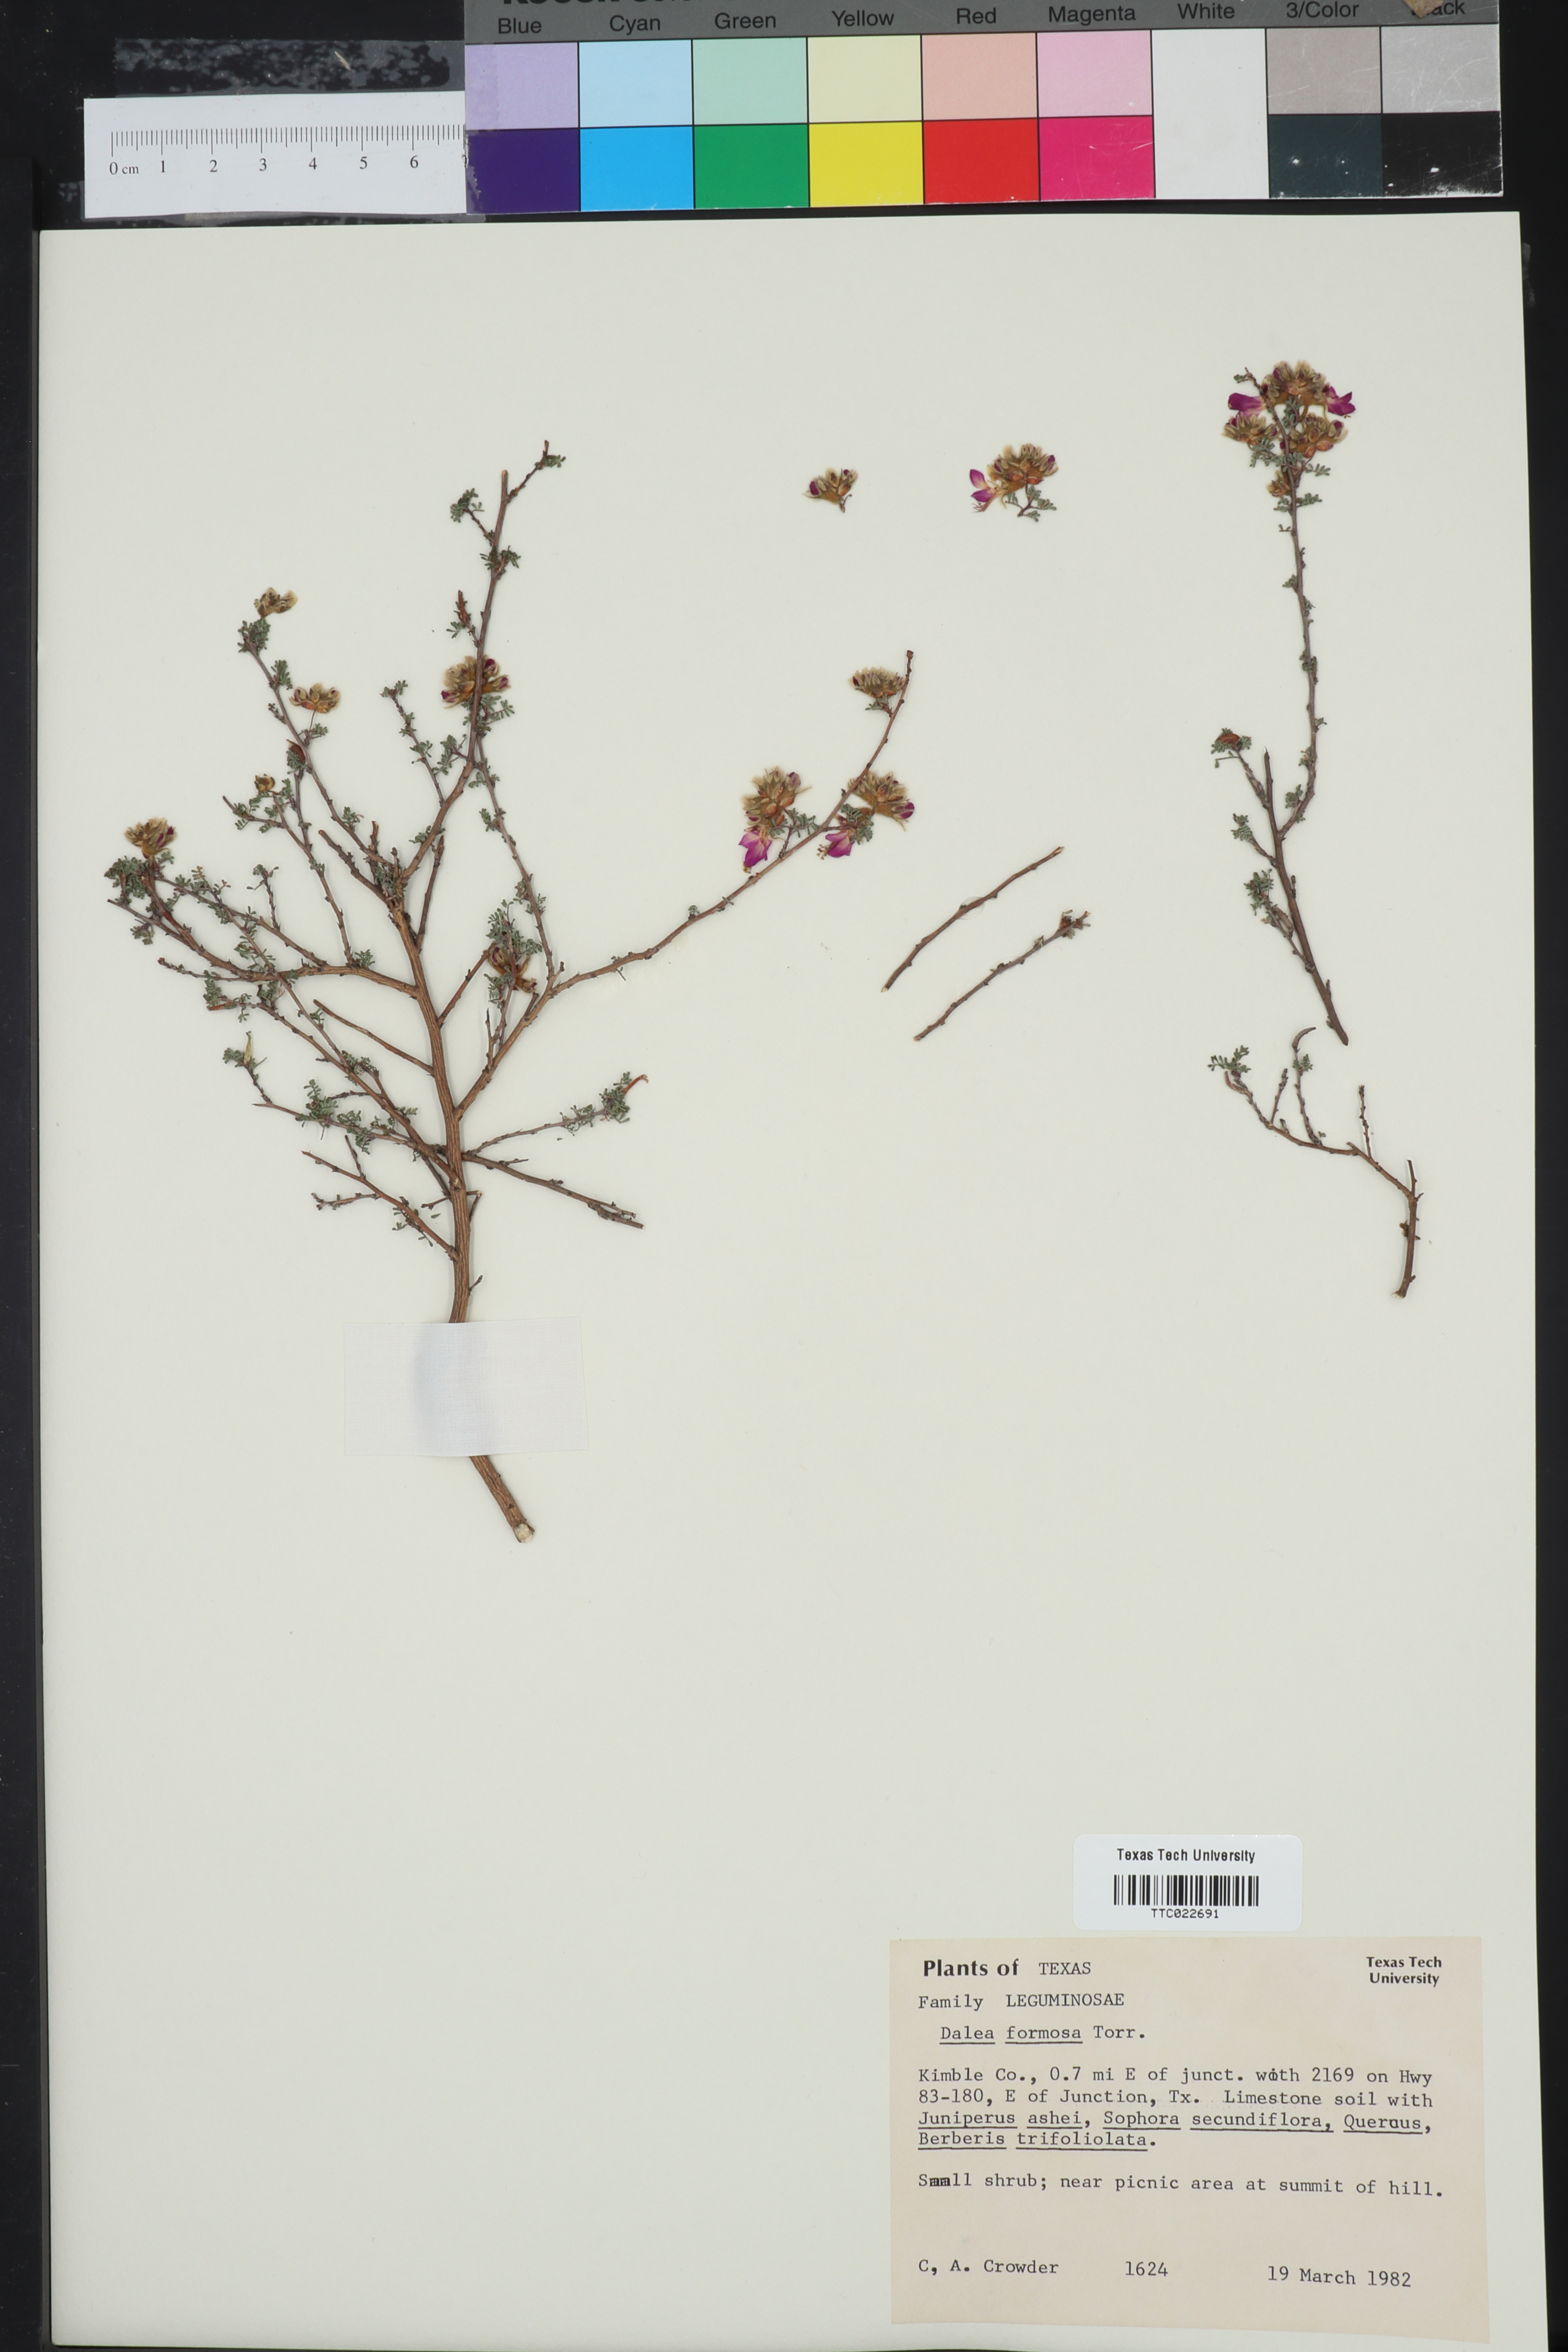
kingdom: Plantae
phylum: Tracheophyta
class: Magnoliopsida
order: Fabales
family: Fabaceae
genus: Dalea
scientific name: Dalea formosa
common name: Feather-plume dalea
